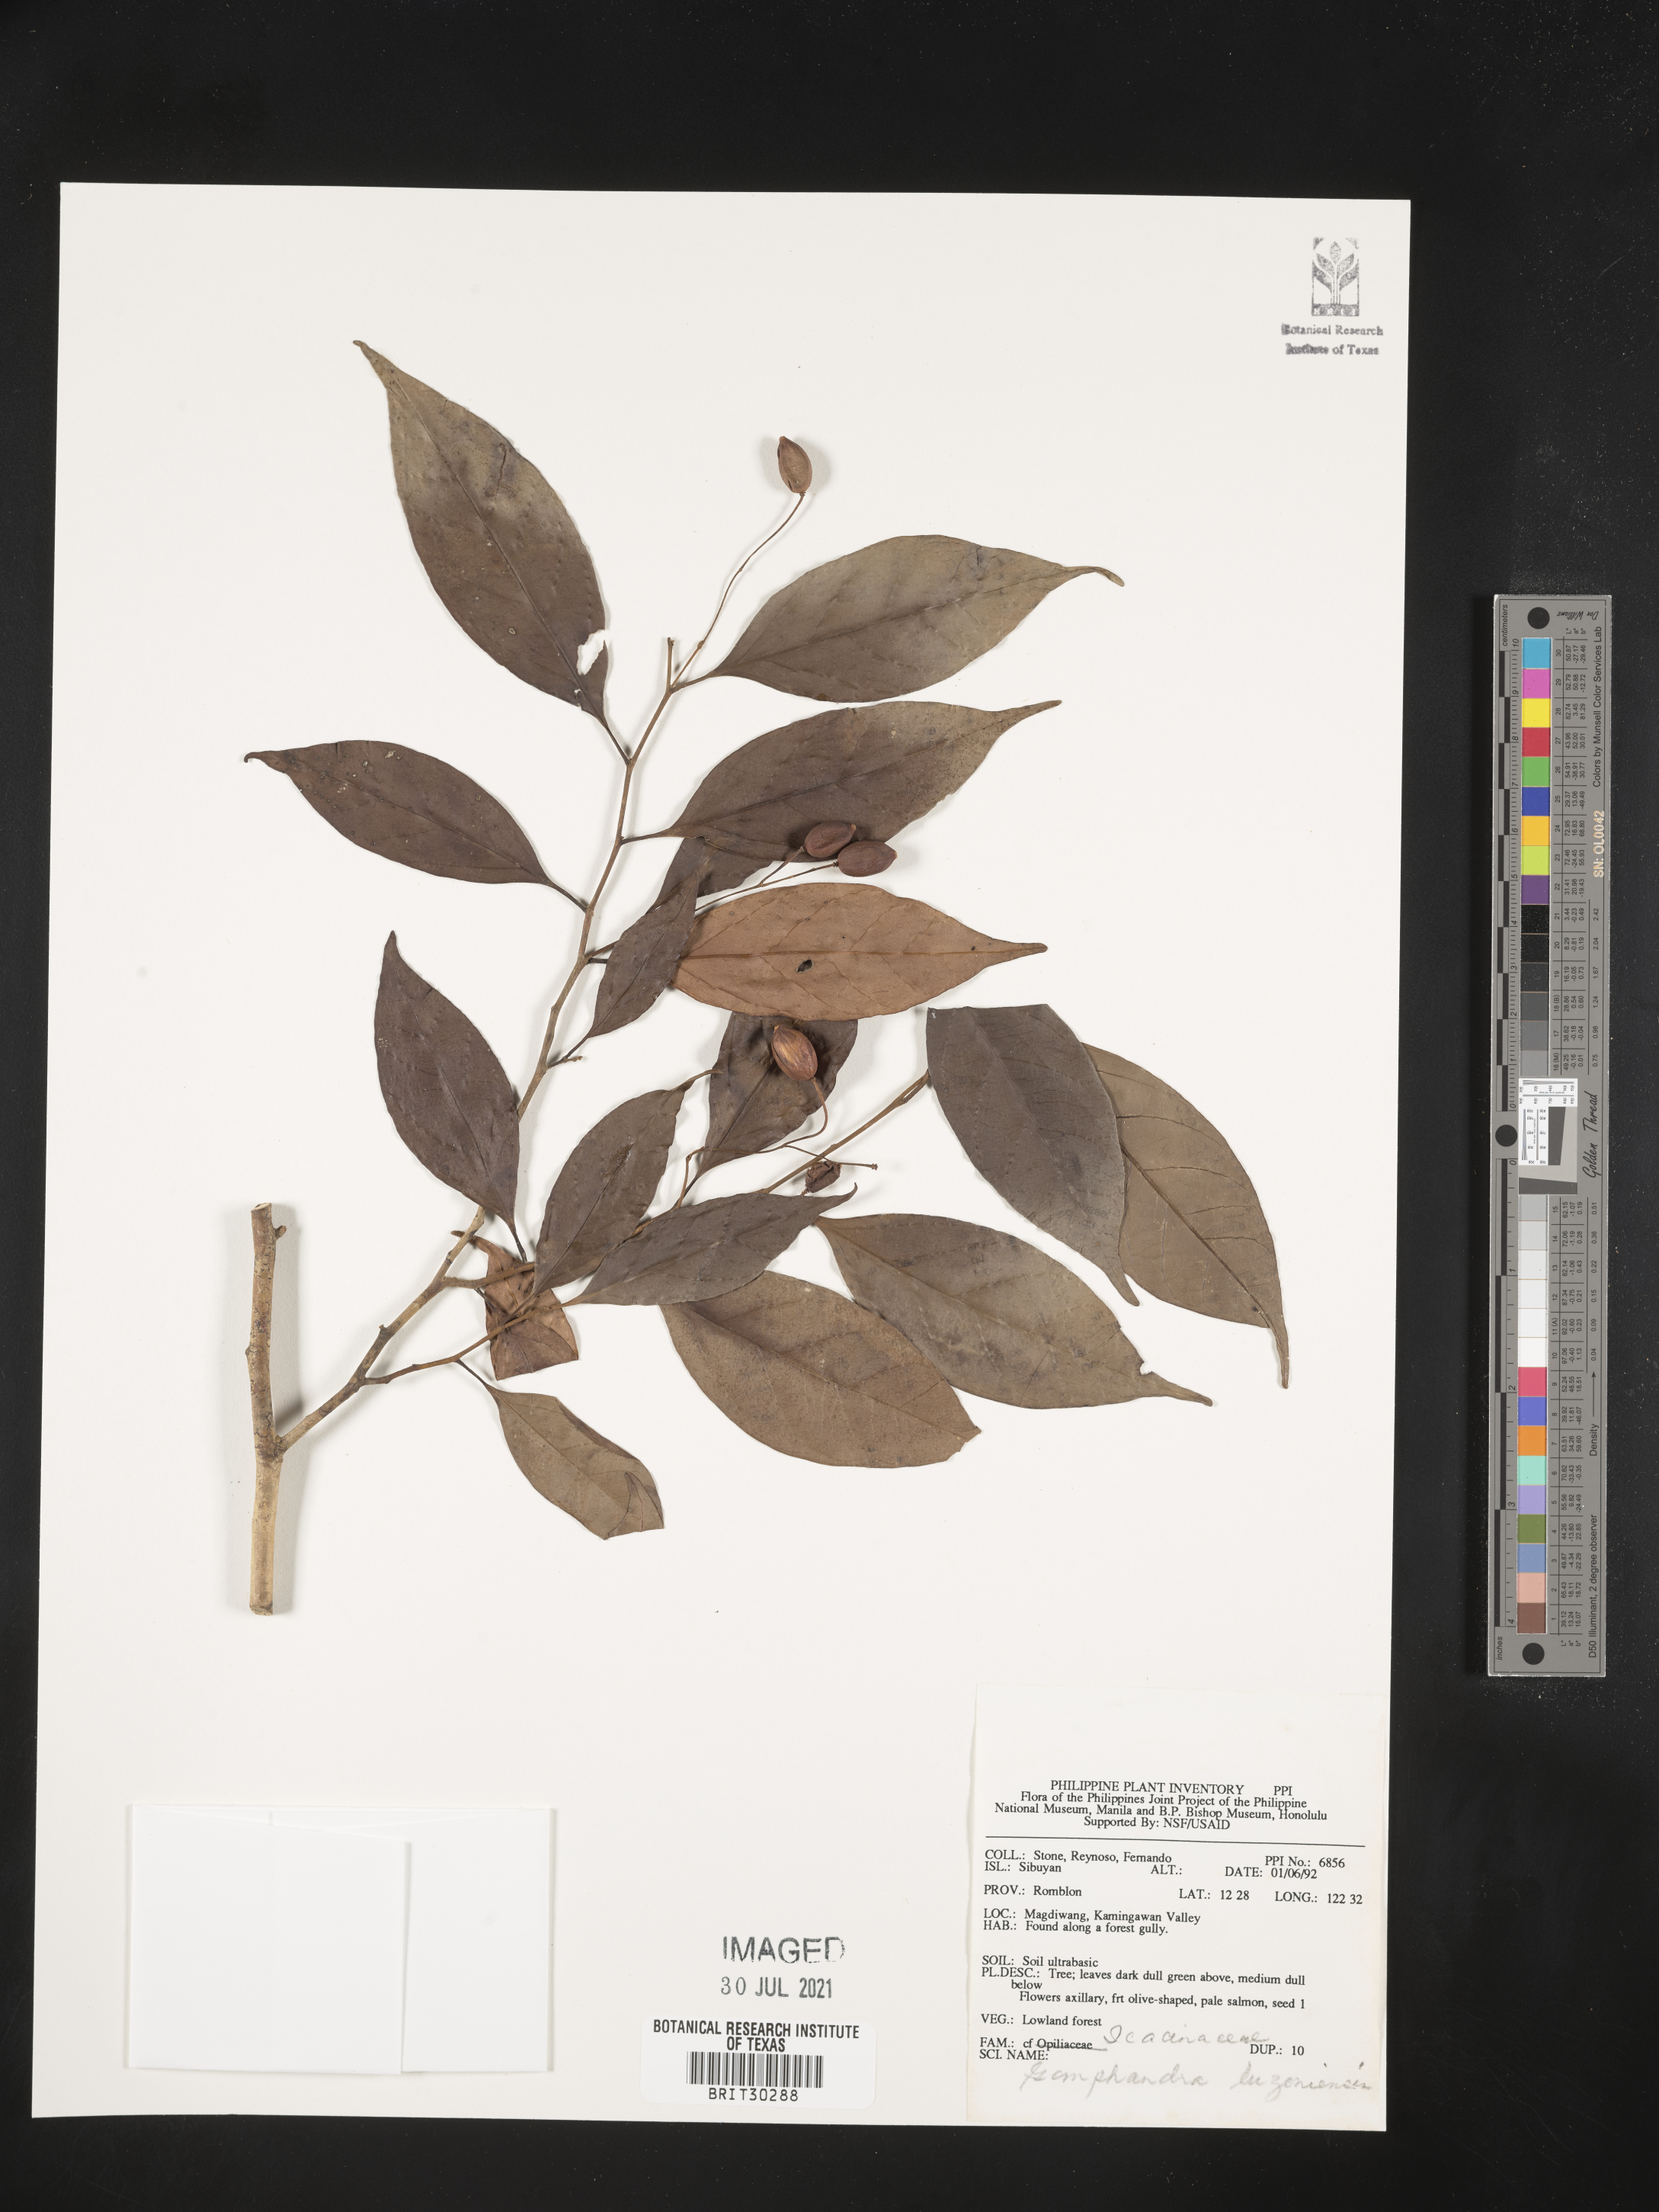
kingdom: Plantae
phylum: Tracheophyta
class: Magnoliopsida
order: Cardiopteridales
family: Stemonuraceae
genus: Gomphandra
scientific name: Gomphandra luzoniensis
